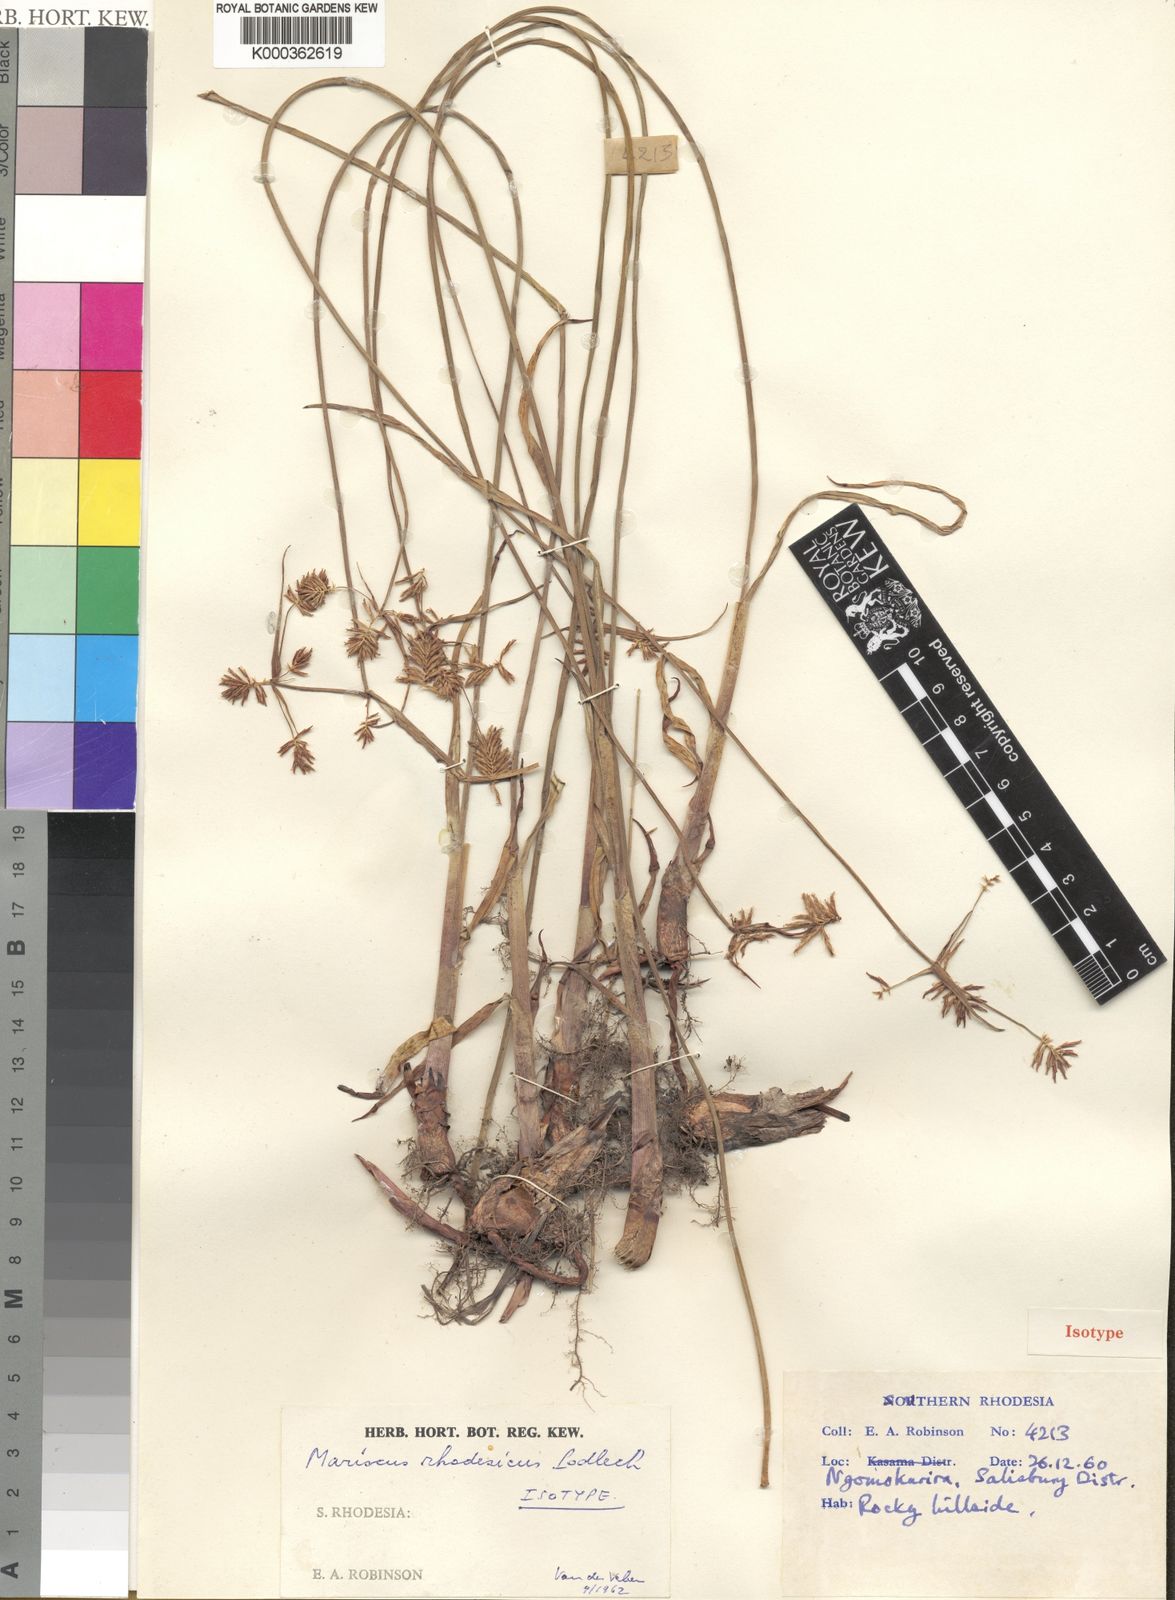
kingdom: Plantae
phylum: Tracheophyta
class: Liliopsida
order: Poales
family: Cyperaceae
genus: Cyperus
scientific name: Cyperus
